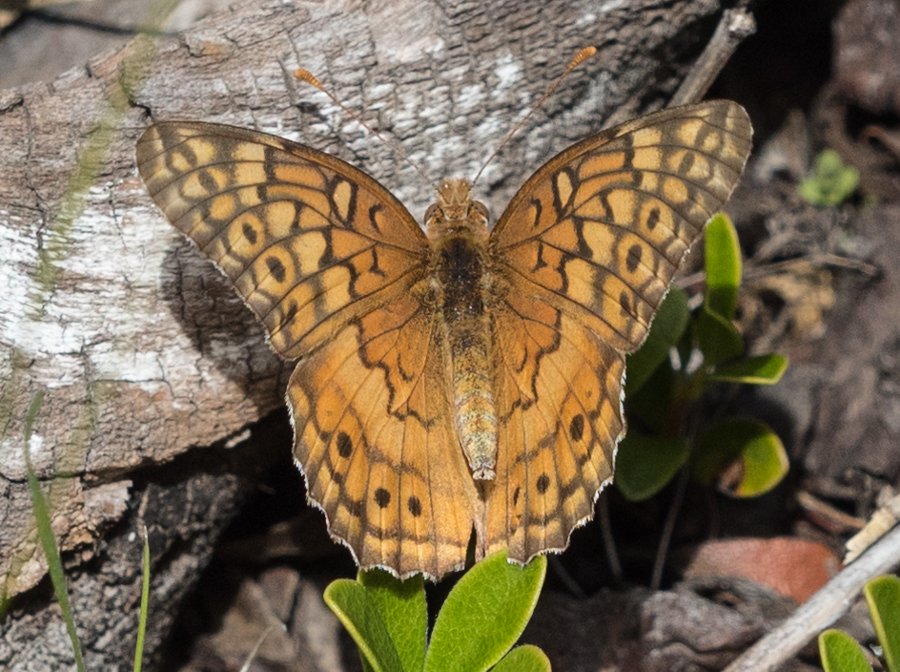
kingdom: Animalia
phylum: Arthropoda
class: Insecta
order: Lepidoptera
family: Nymphalidae
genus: Euptoieta
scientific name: Euptoieta claudia
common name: Variegated Fritillary
